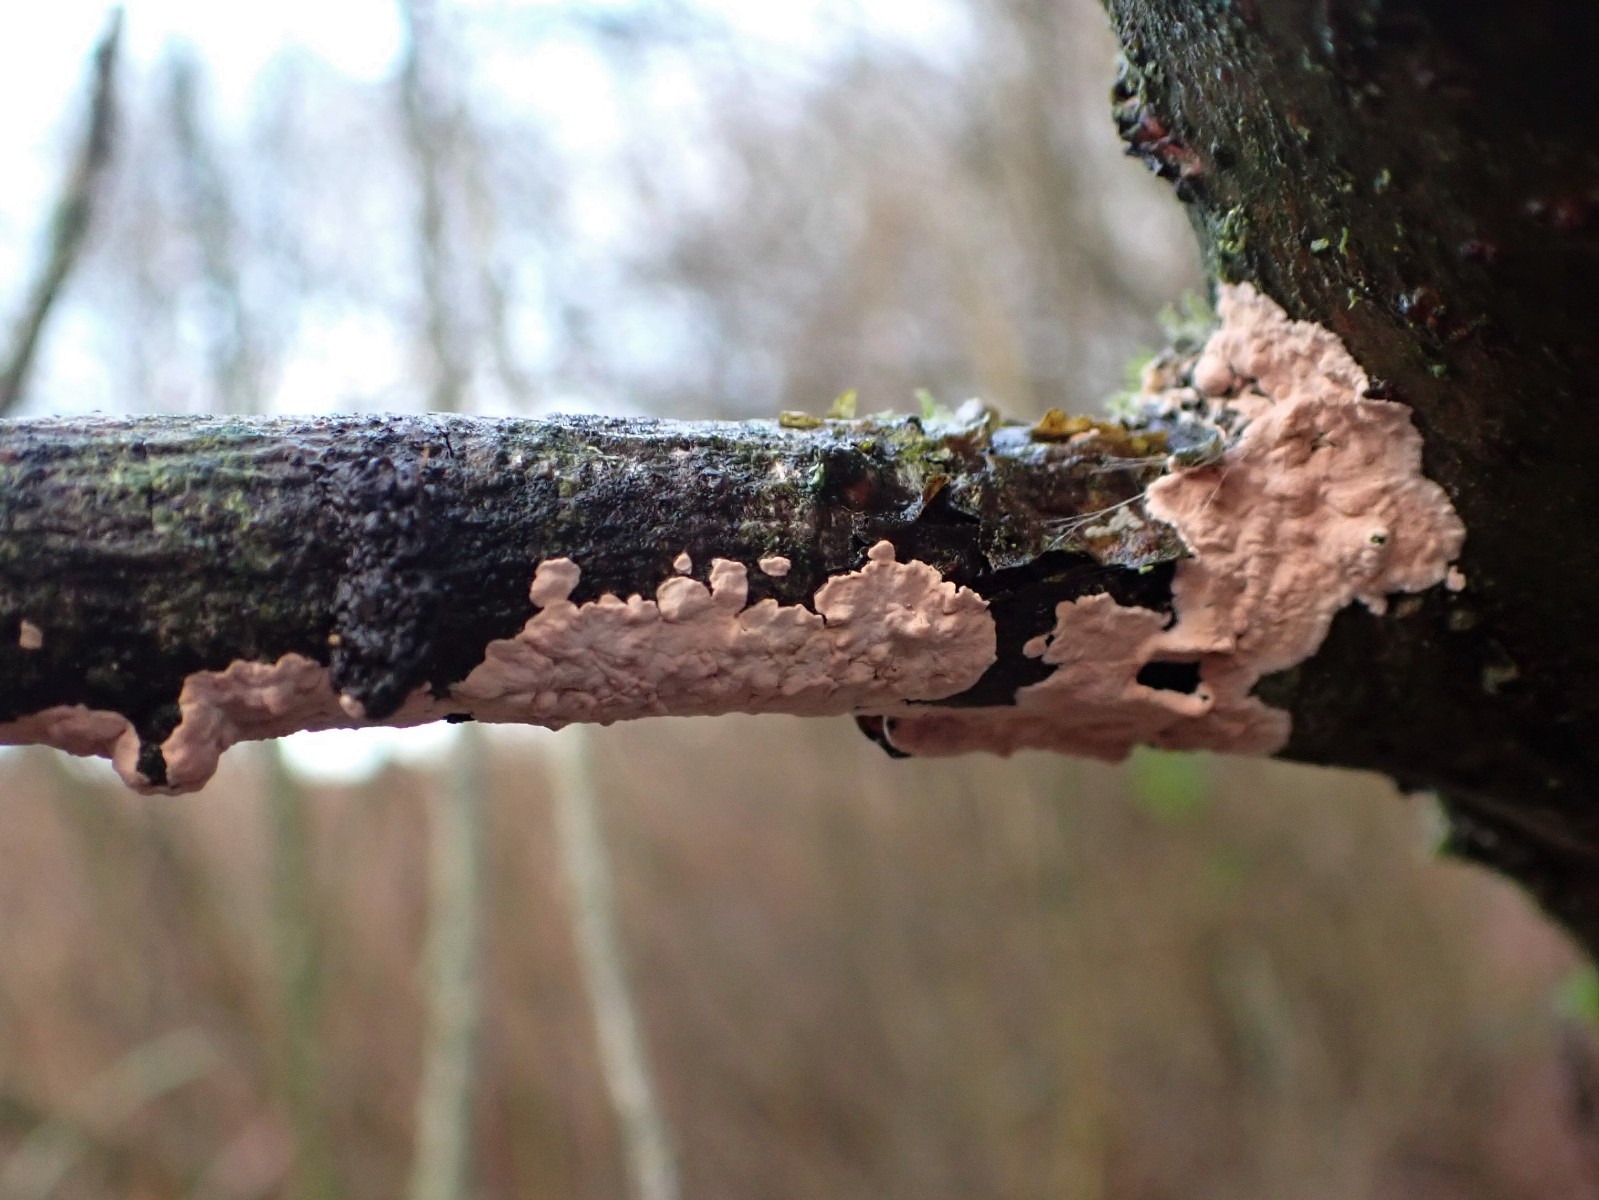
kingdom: Fungi
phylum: Basidiomycota
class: Agaricomycetes
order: Corticiales
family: Corticiaceae
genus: Corticium
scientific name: Corticium roseum
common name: rosa barkskind
